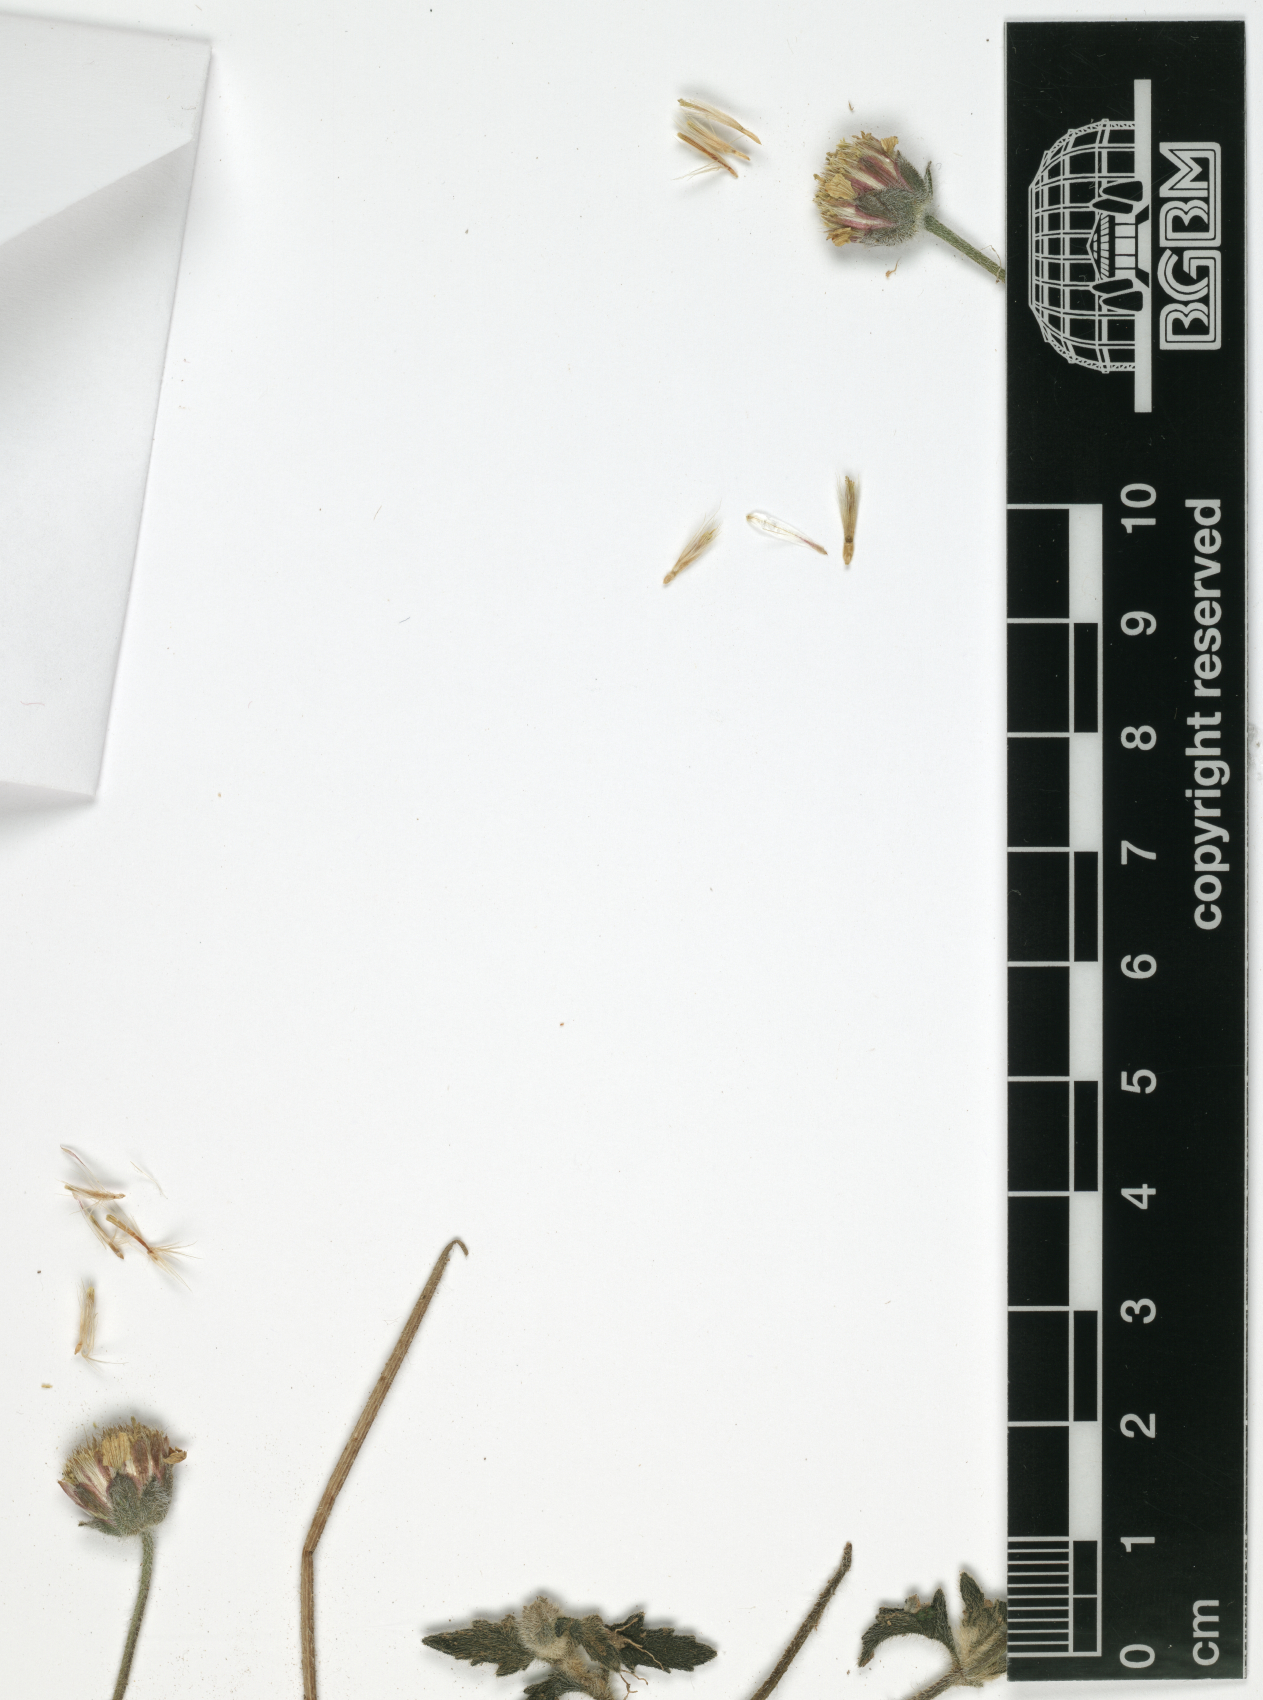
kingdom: Plantae
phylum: Tracheophyta
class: Magnoliopsida
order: Asterales
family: Asteraceae
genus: Tridax
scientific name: Tridax procumbens
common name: Coatbuttons
